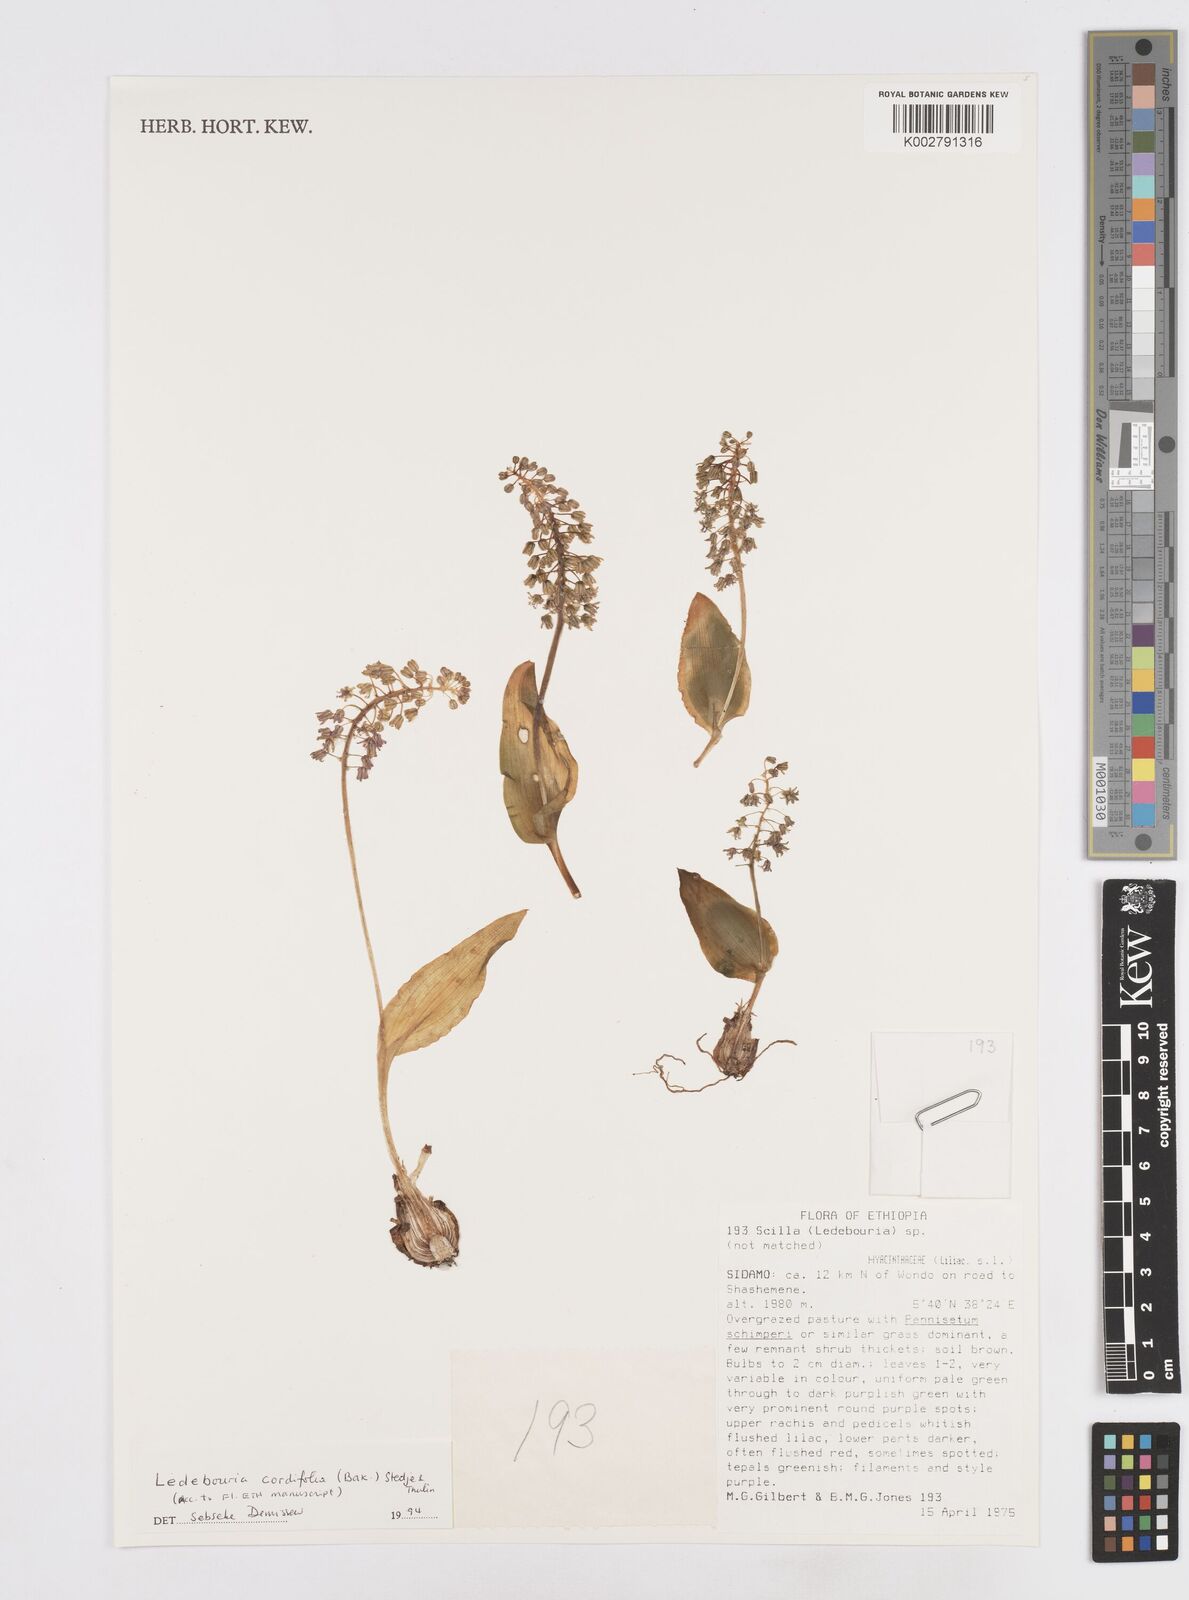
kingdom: Plantae
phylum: Tracheophyta
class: Liliopsida
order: Asparagales
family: Asparagaceae
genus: Ledebouria
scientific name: Ledebouria cordifolia
